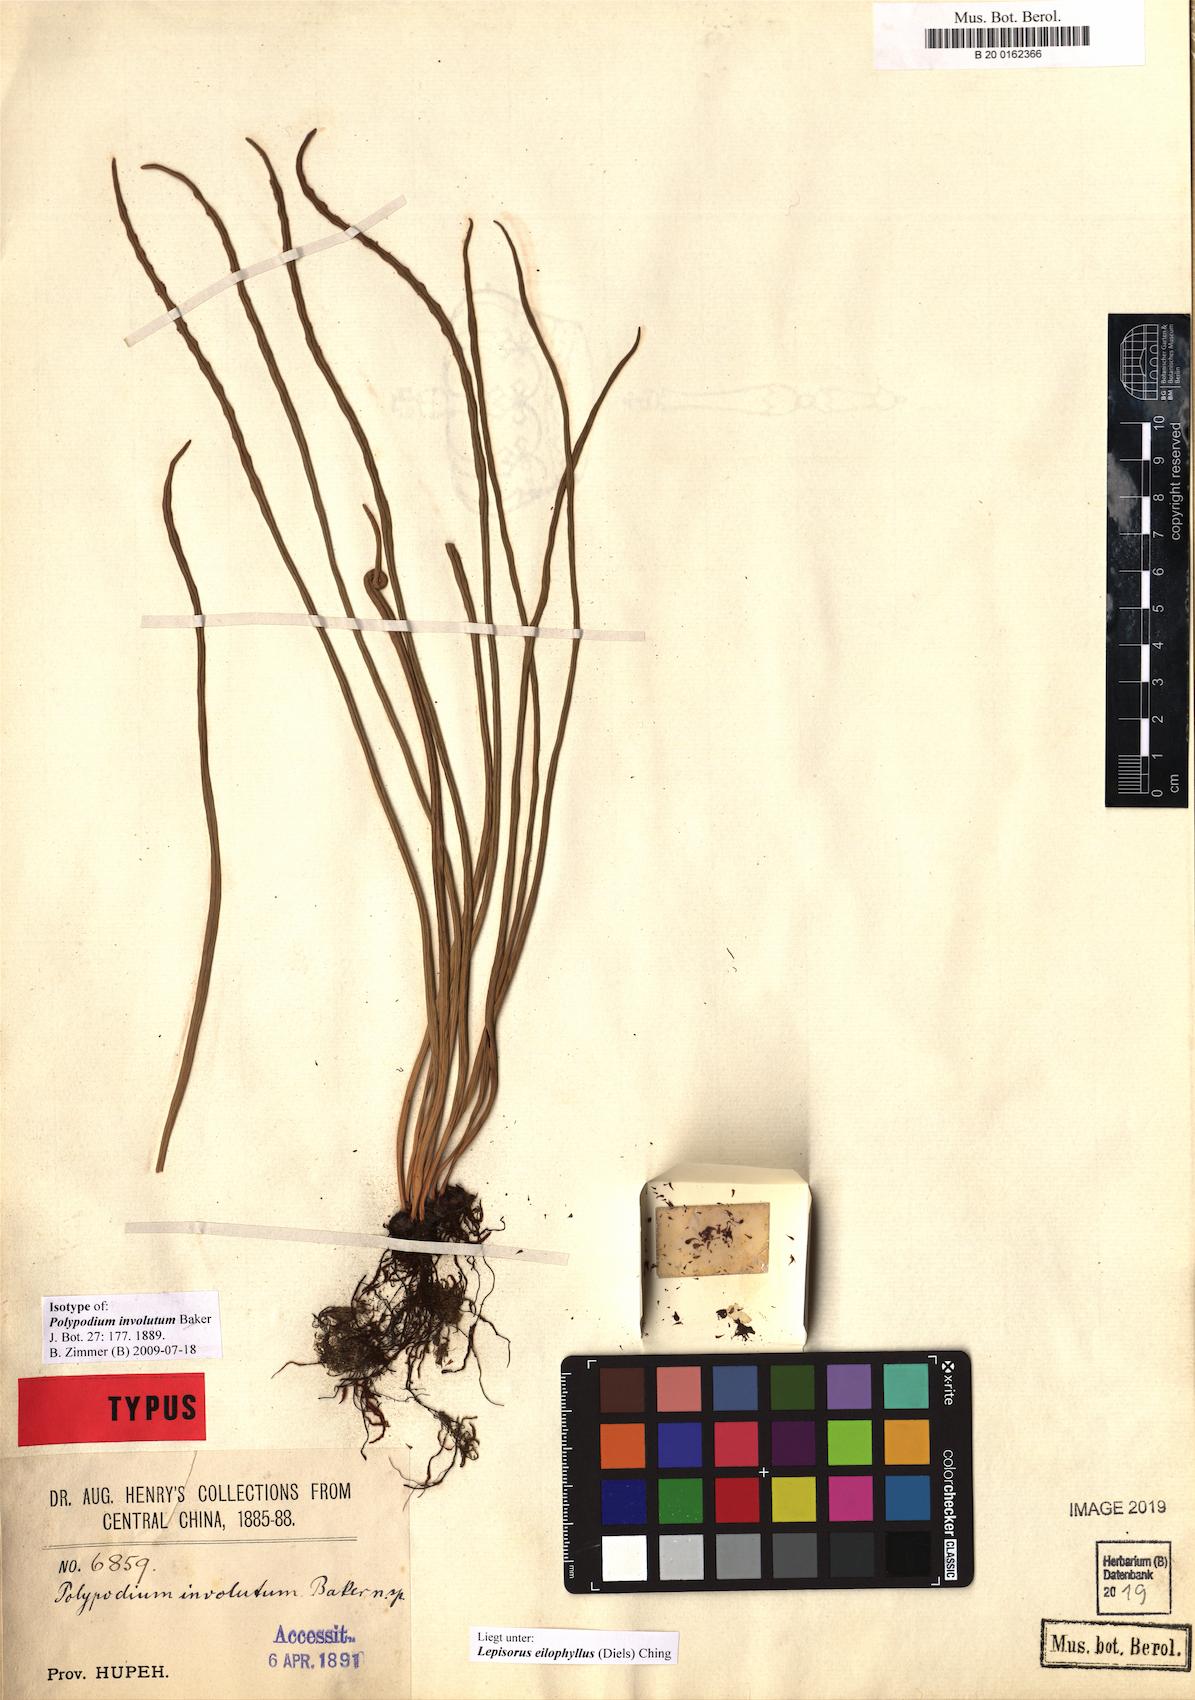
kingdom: Plantae
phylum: Tracheophyta
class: Polypodiopsida
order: Polypodiales
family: Polypodiaceae
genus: Lepisorus
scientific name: Lepisorus eilophyllus
